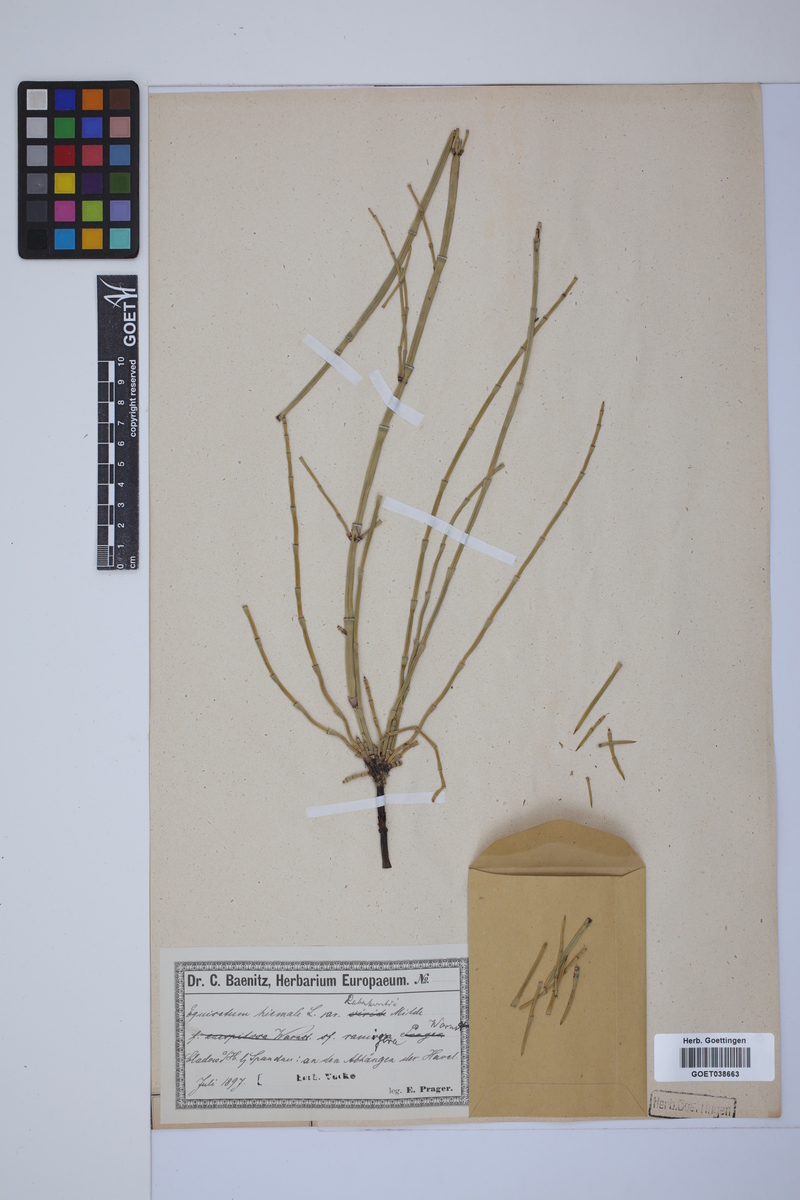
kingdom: Plantae
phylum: Tracheophyta
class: Polypodiopsida
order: Equisetales
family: Equisetaceae
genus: Equisetum
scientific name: Equisetum hyemale
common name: Rough horsetail
